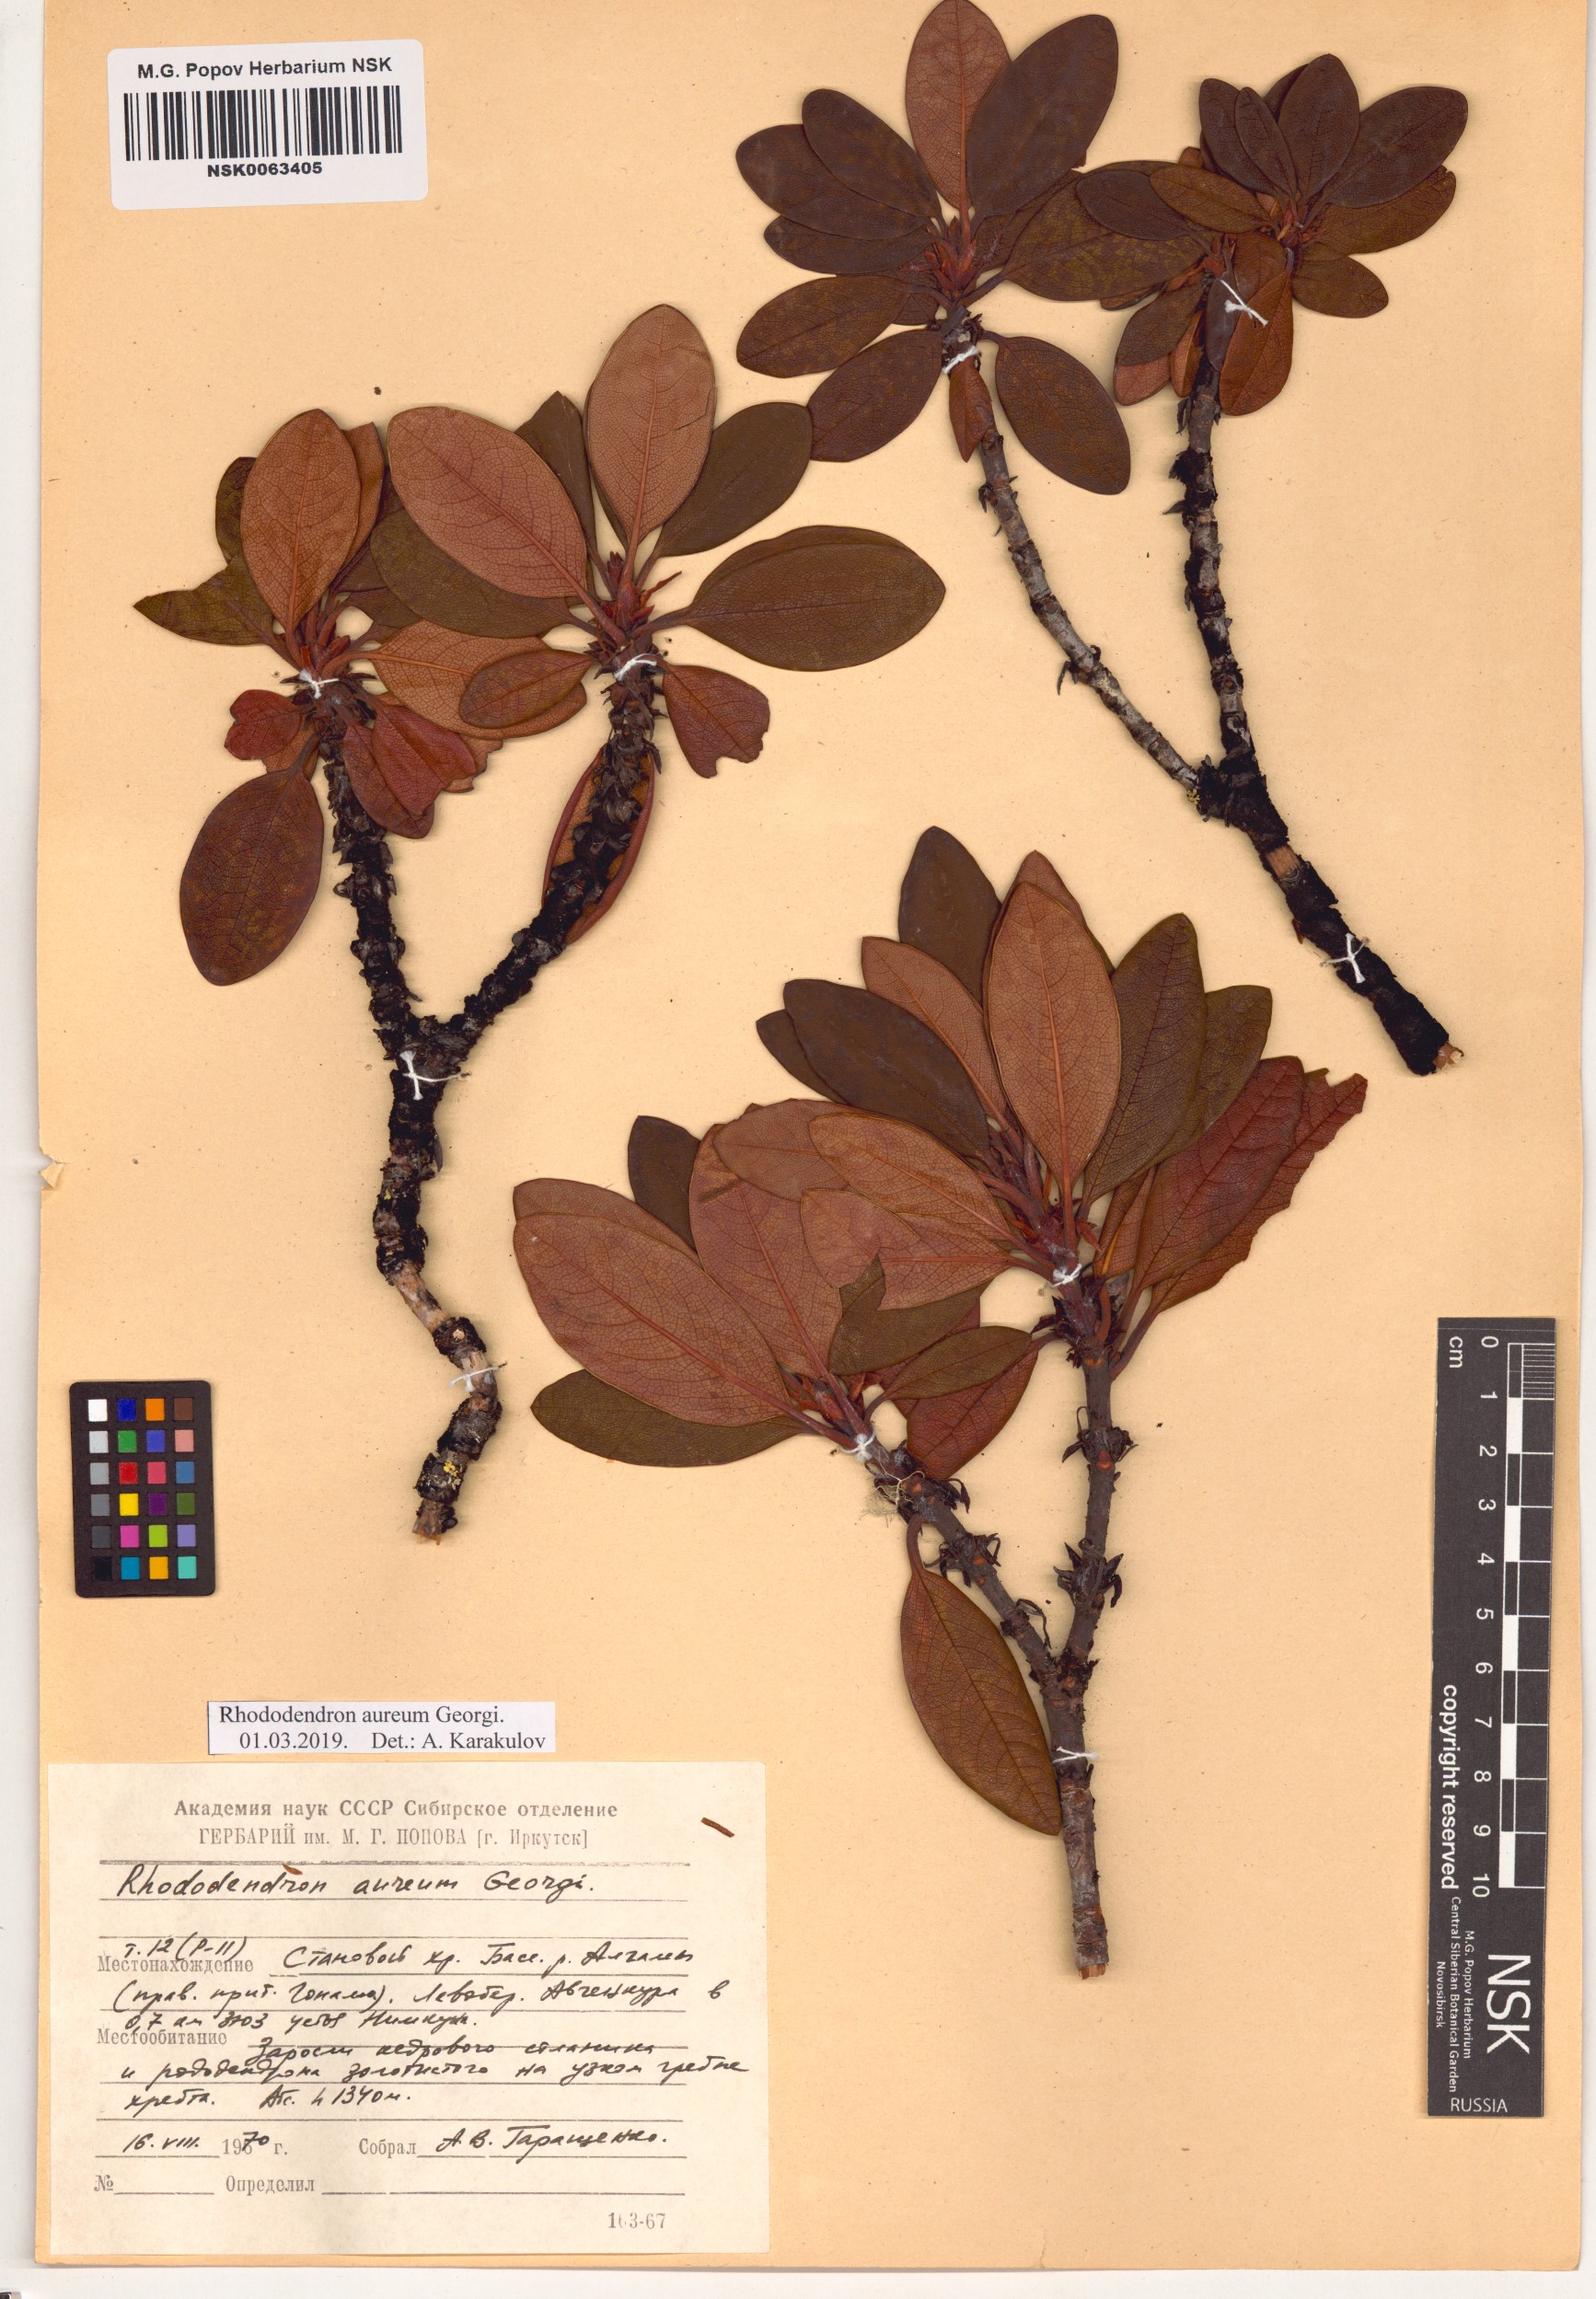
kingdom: Plantae
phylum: Tracheophyta
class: Magnoliopsida
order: Ericales
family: Ericaceae
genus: Rhododendron
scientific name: Rhododendron aureum
